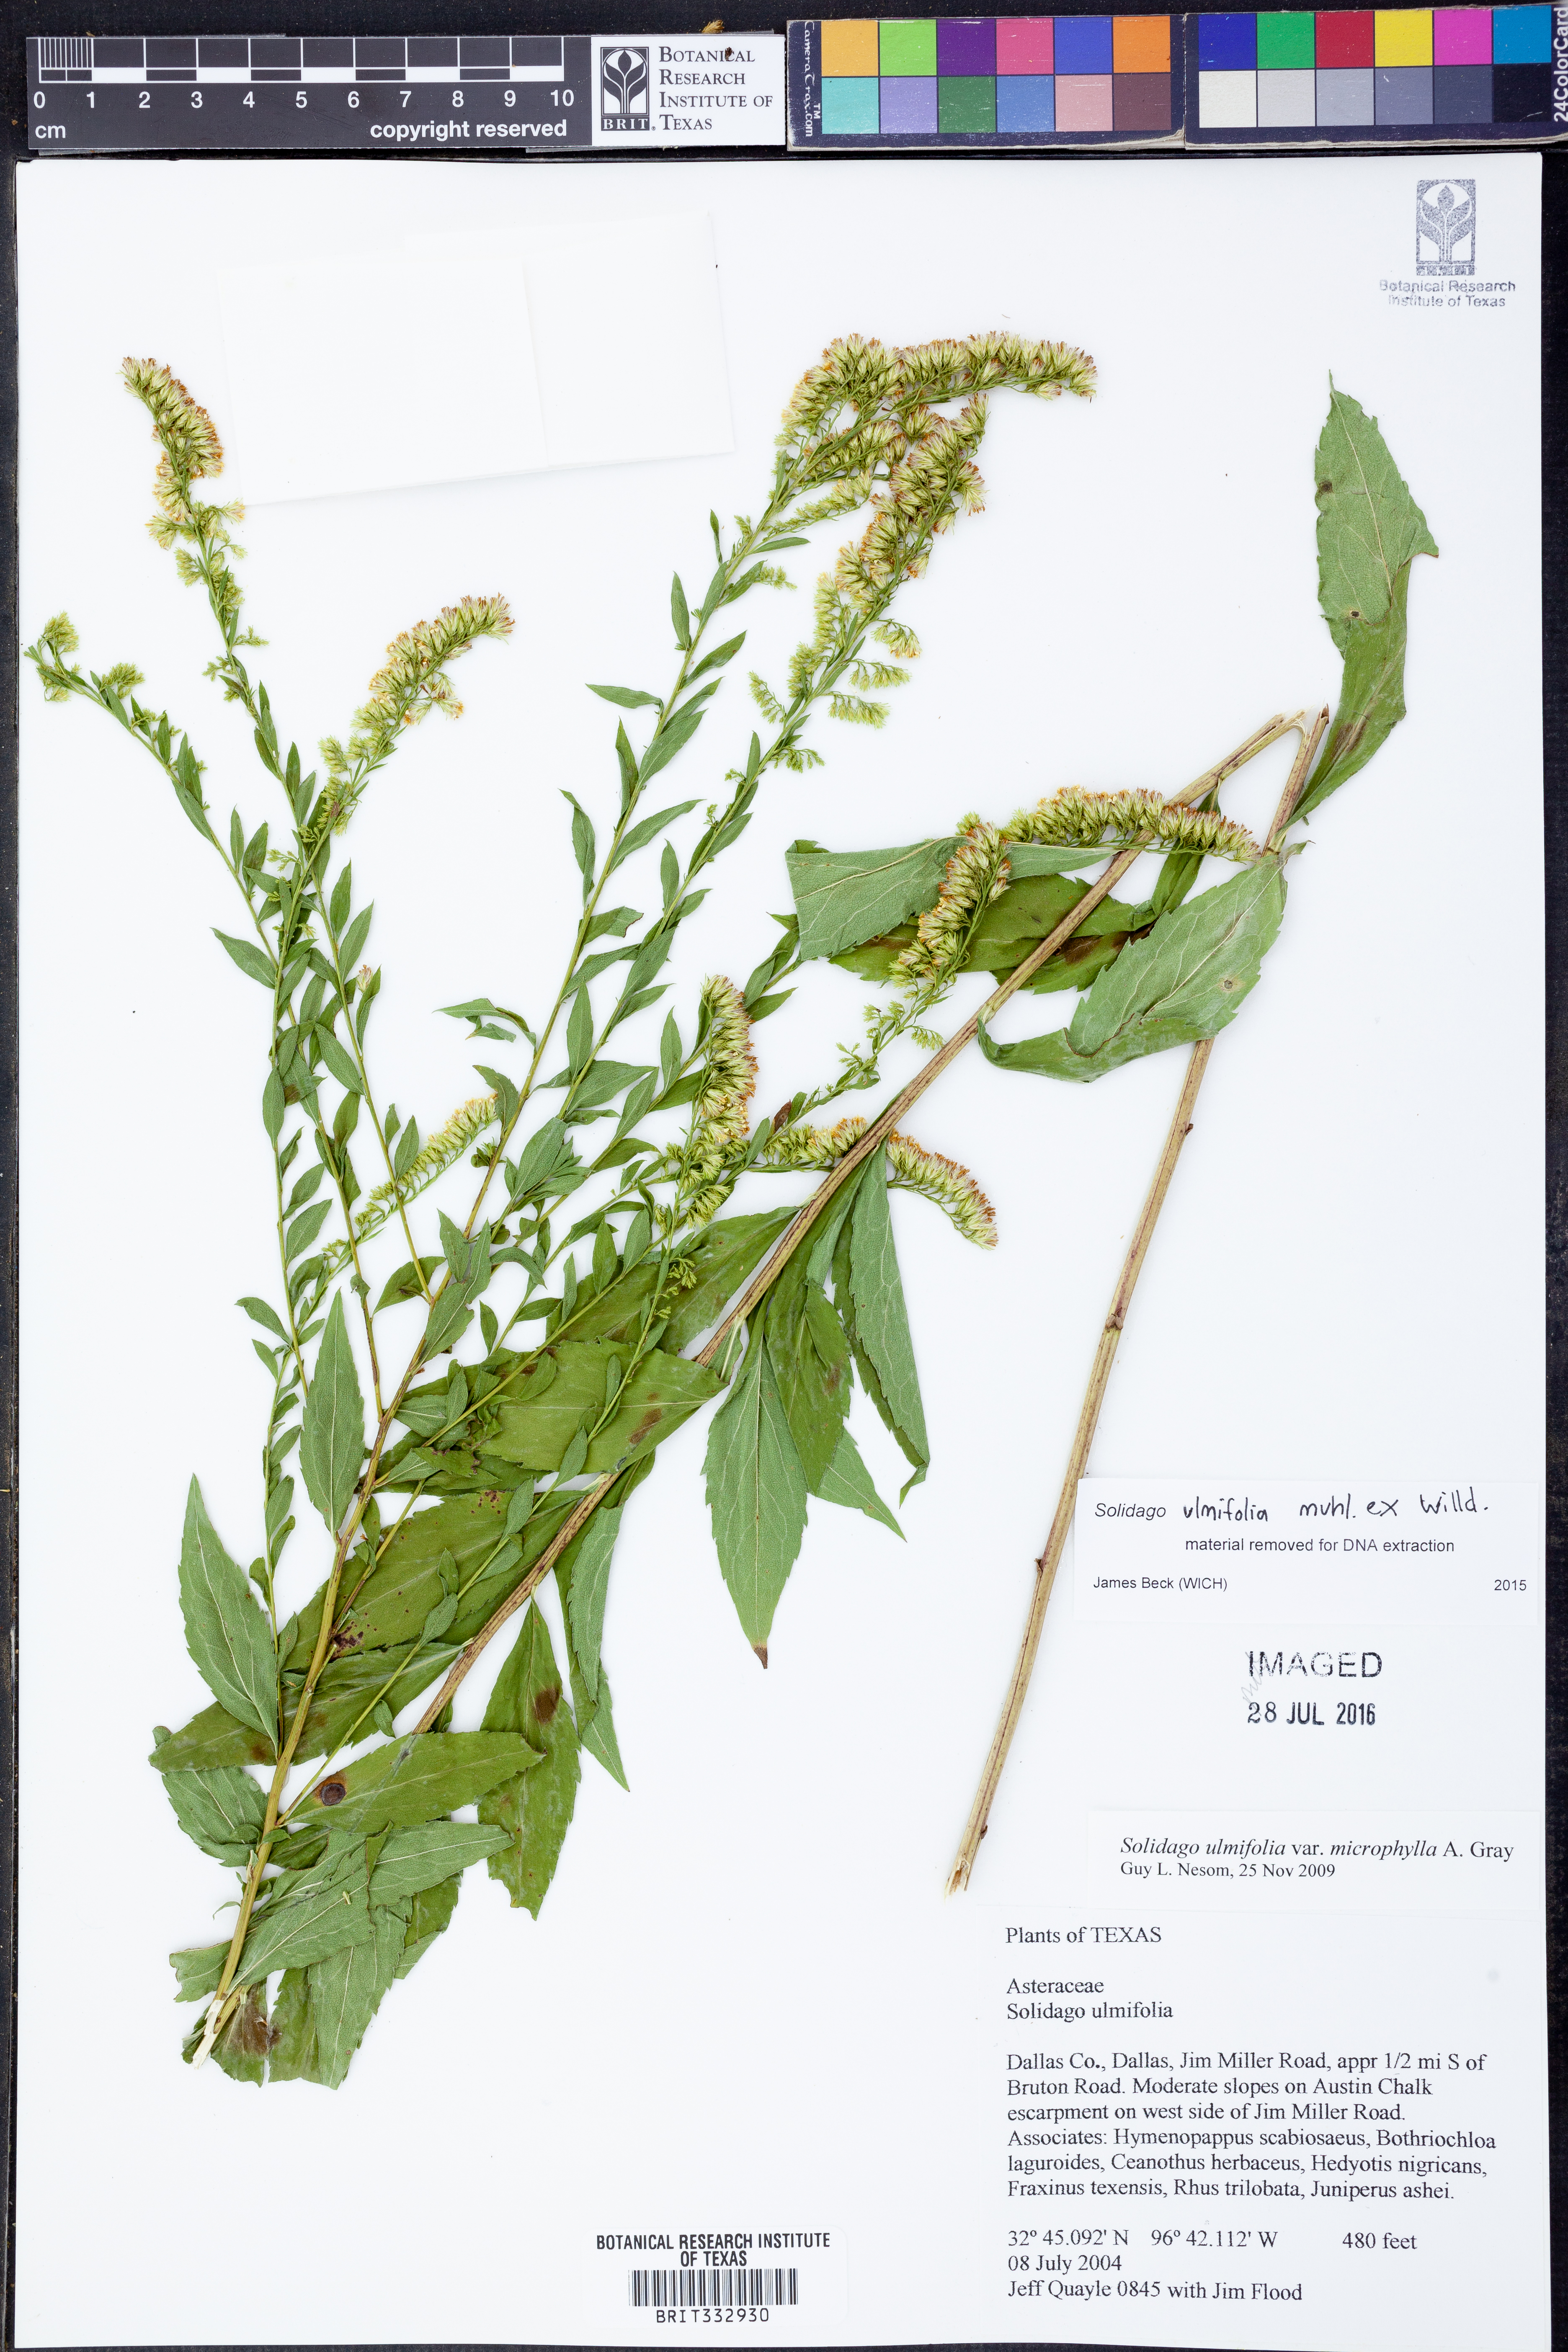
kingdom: Plantae
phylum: Tracheophyta
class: Magnoliopsida
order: Asterales
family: Asteraceae
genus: Solidago
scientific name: Solidago ulmifolia
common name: Elm-leaf goldenrod
